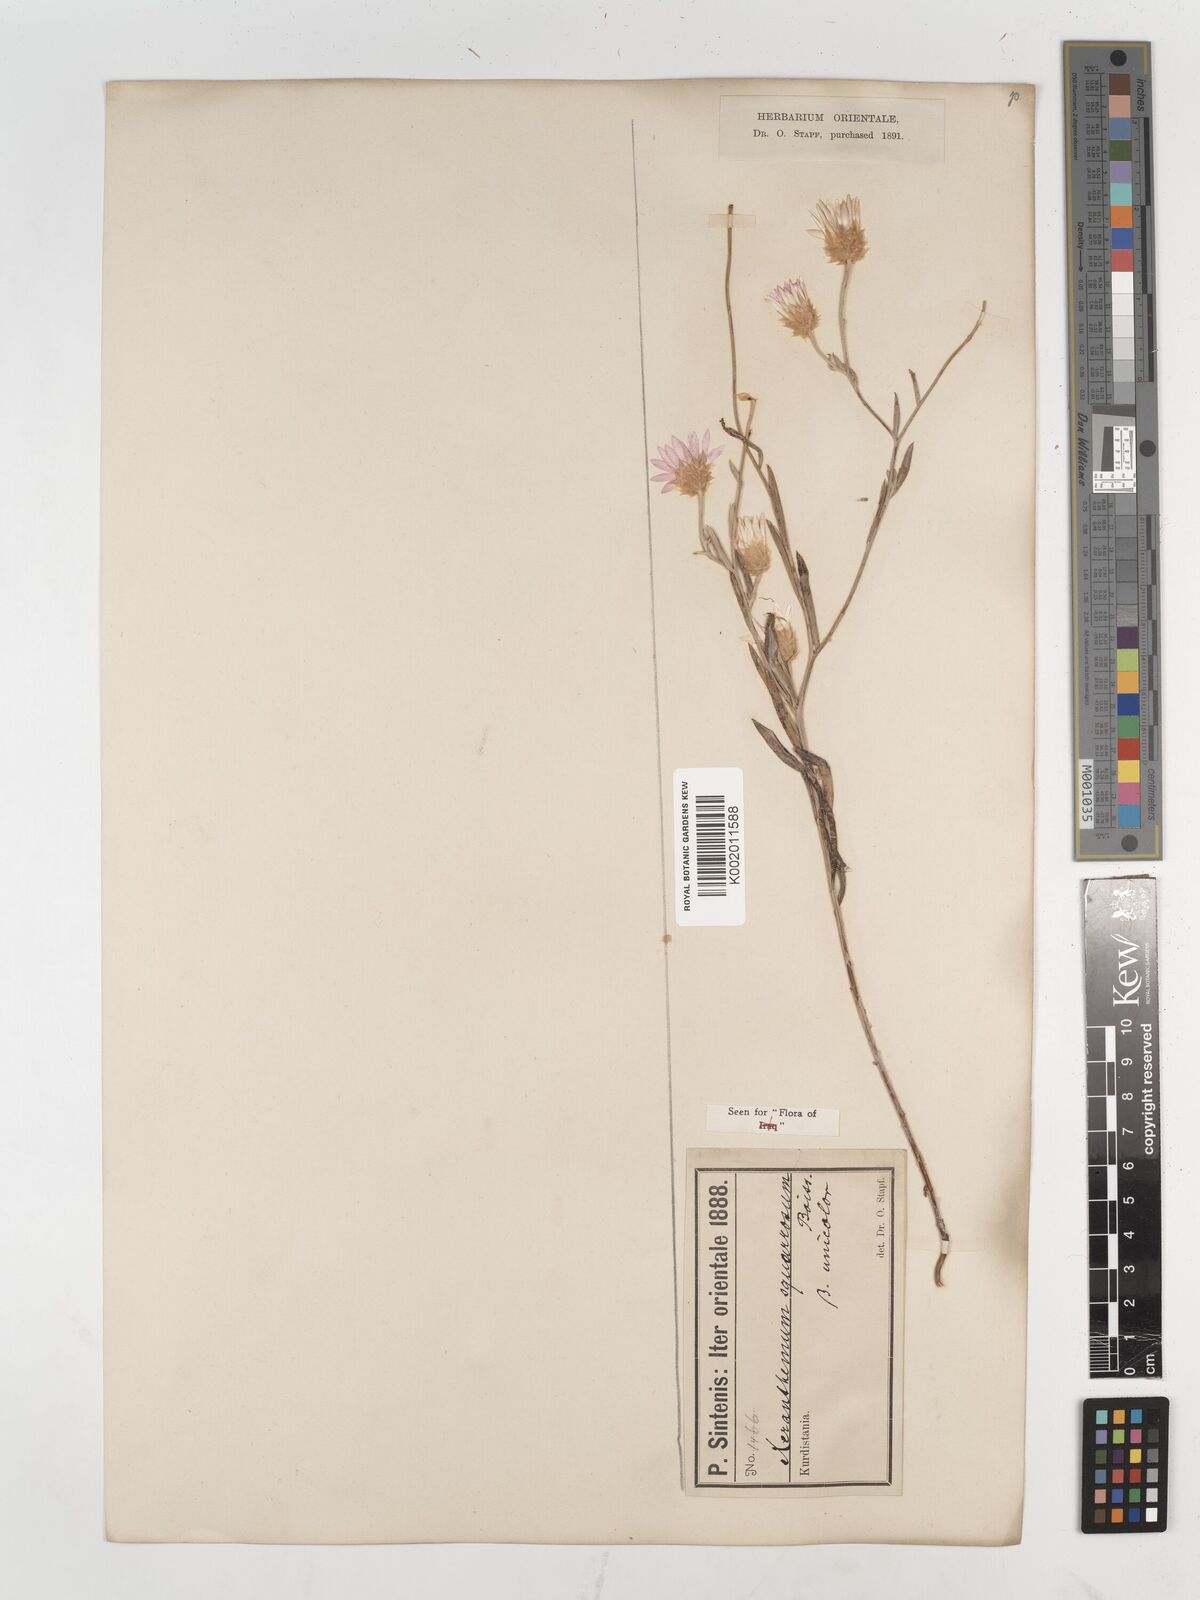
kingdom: Plantae
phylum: Tracheophyta
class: Magnoliopsida
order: Asterales
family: Asteraceae
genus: Xeranthemum
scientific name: Xeranthemum annuum
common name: Immortelle
